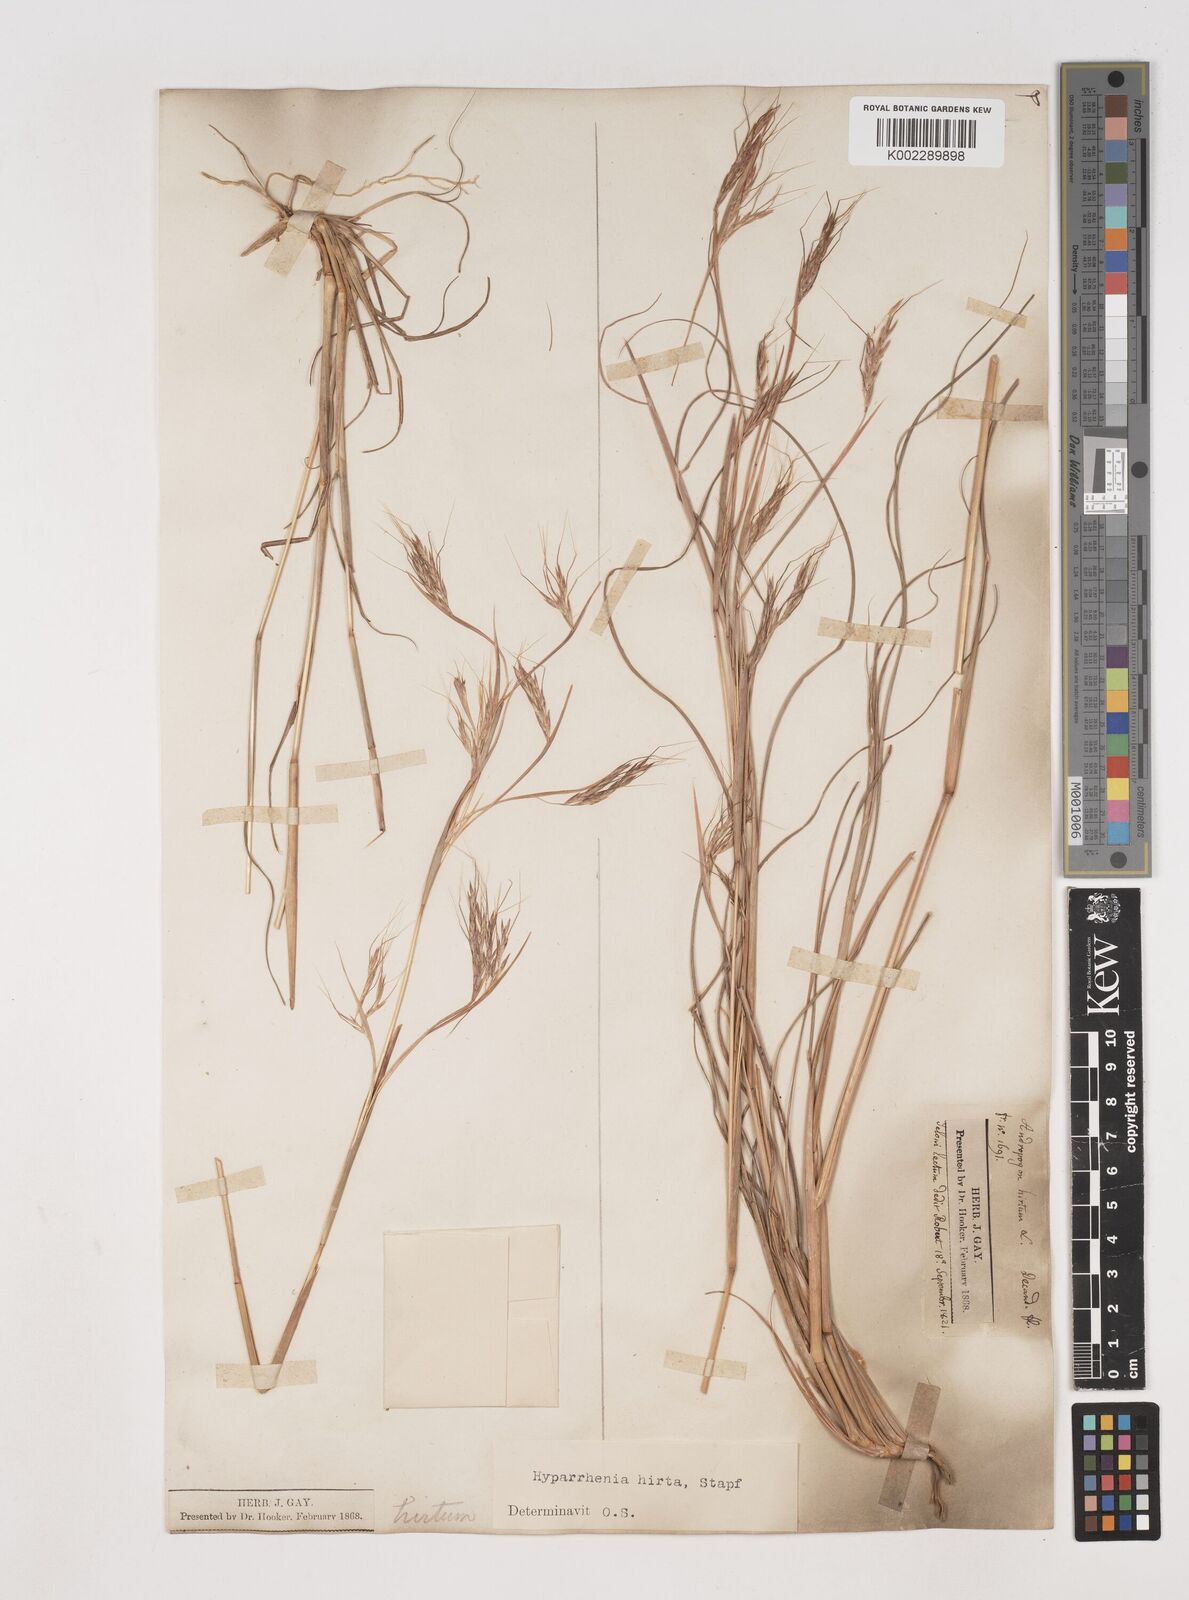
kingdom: Plantae
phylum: Tracheophyta
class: Liliopsida
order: Poales
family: Poaceae
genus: Hyparrhenia
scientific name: Hyparrhenia hirta
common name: Thatching grass
